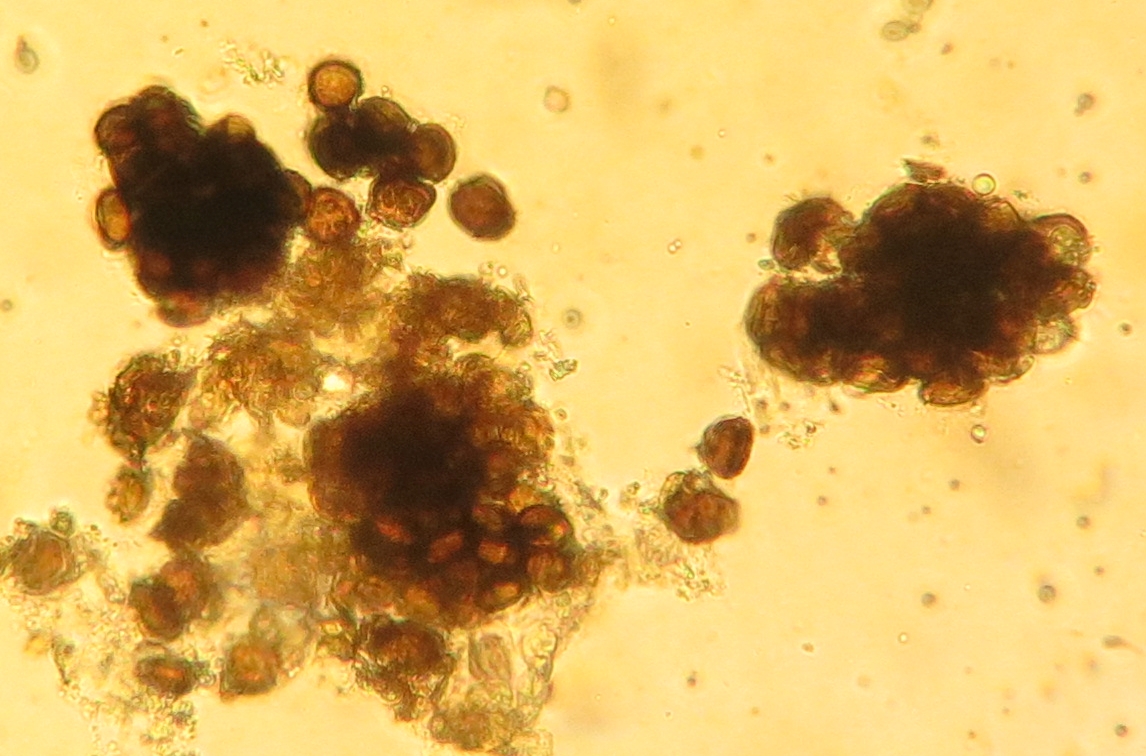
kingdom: Fungi
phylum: Basidiomycota
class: Ustilaginomycetes
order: Ustilaginales
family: Anthracoideaceae
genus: Ustanciosporium
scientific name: Ustanciosporium montagnei
